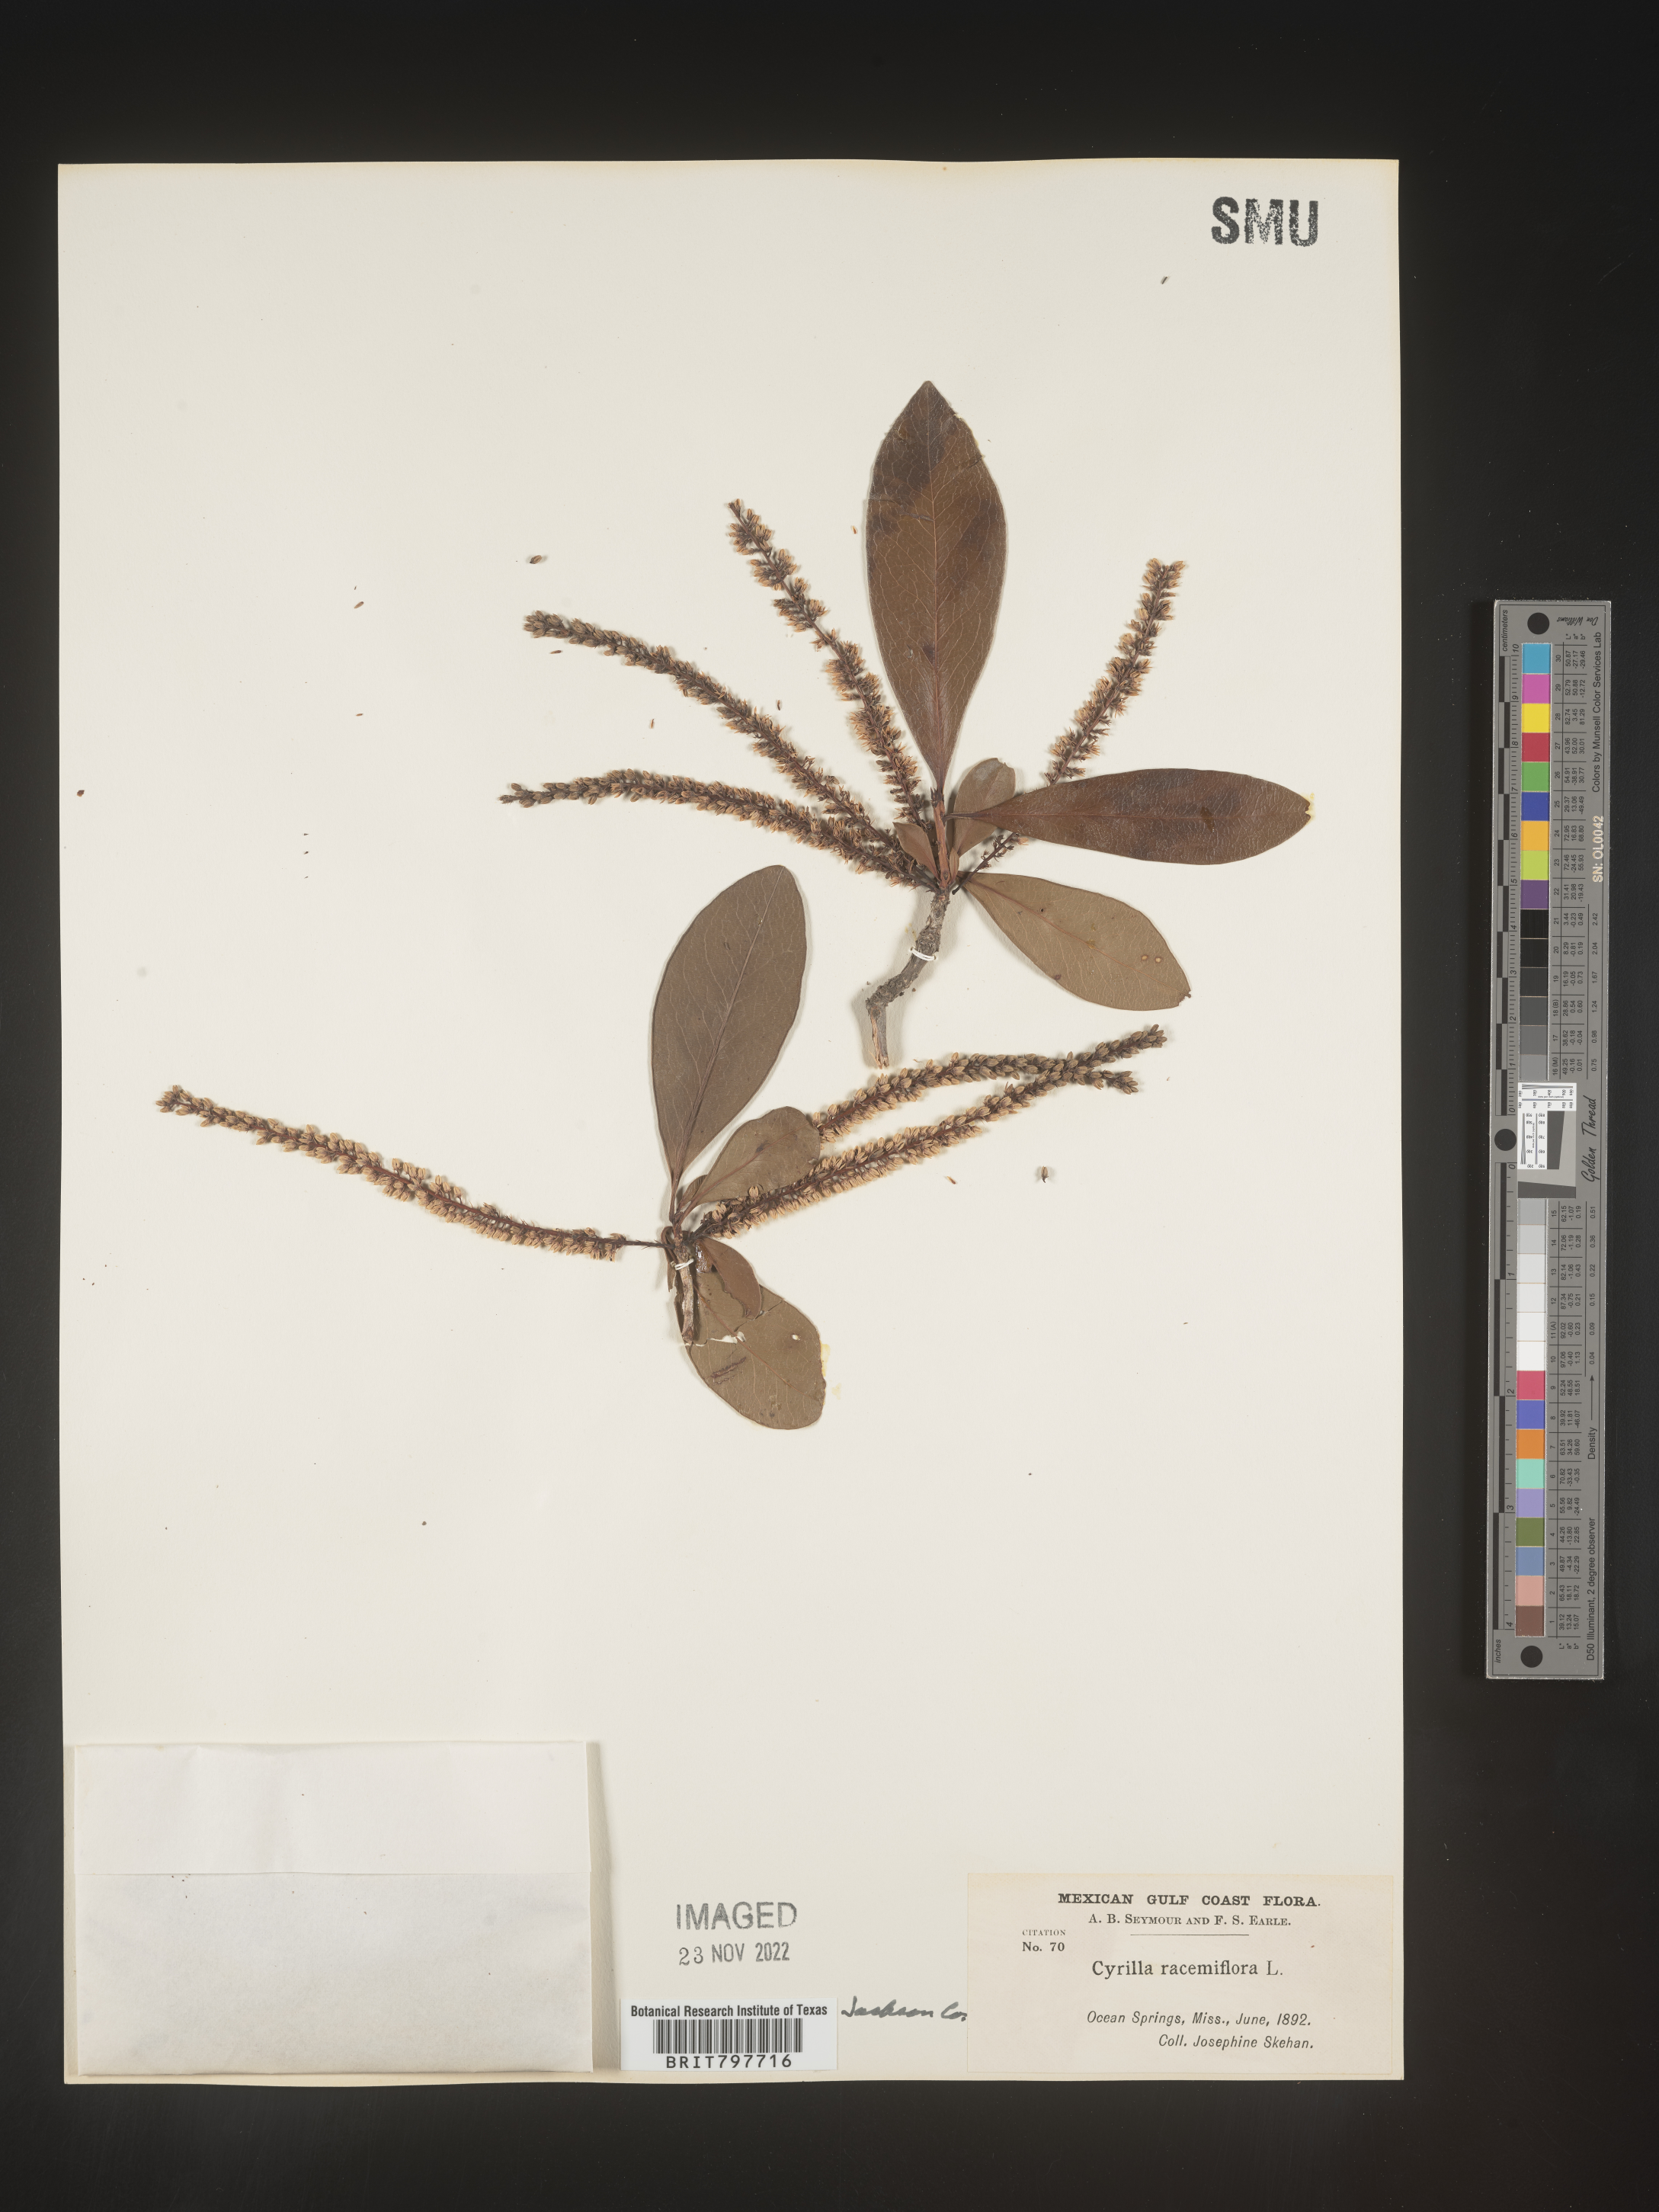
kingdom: Plantae
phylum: Tracheophyta
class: Magnoliopsida
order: Ericales
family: Cyrillaceae
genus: Cyrilla
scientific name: Cyrilla racemiflora
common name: Black titi
